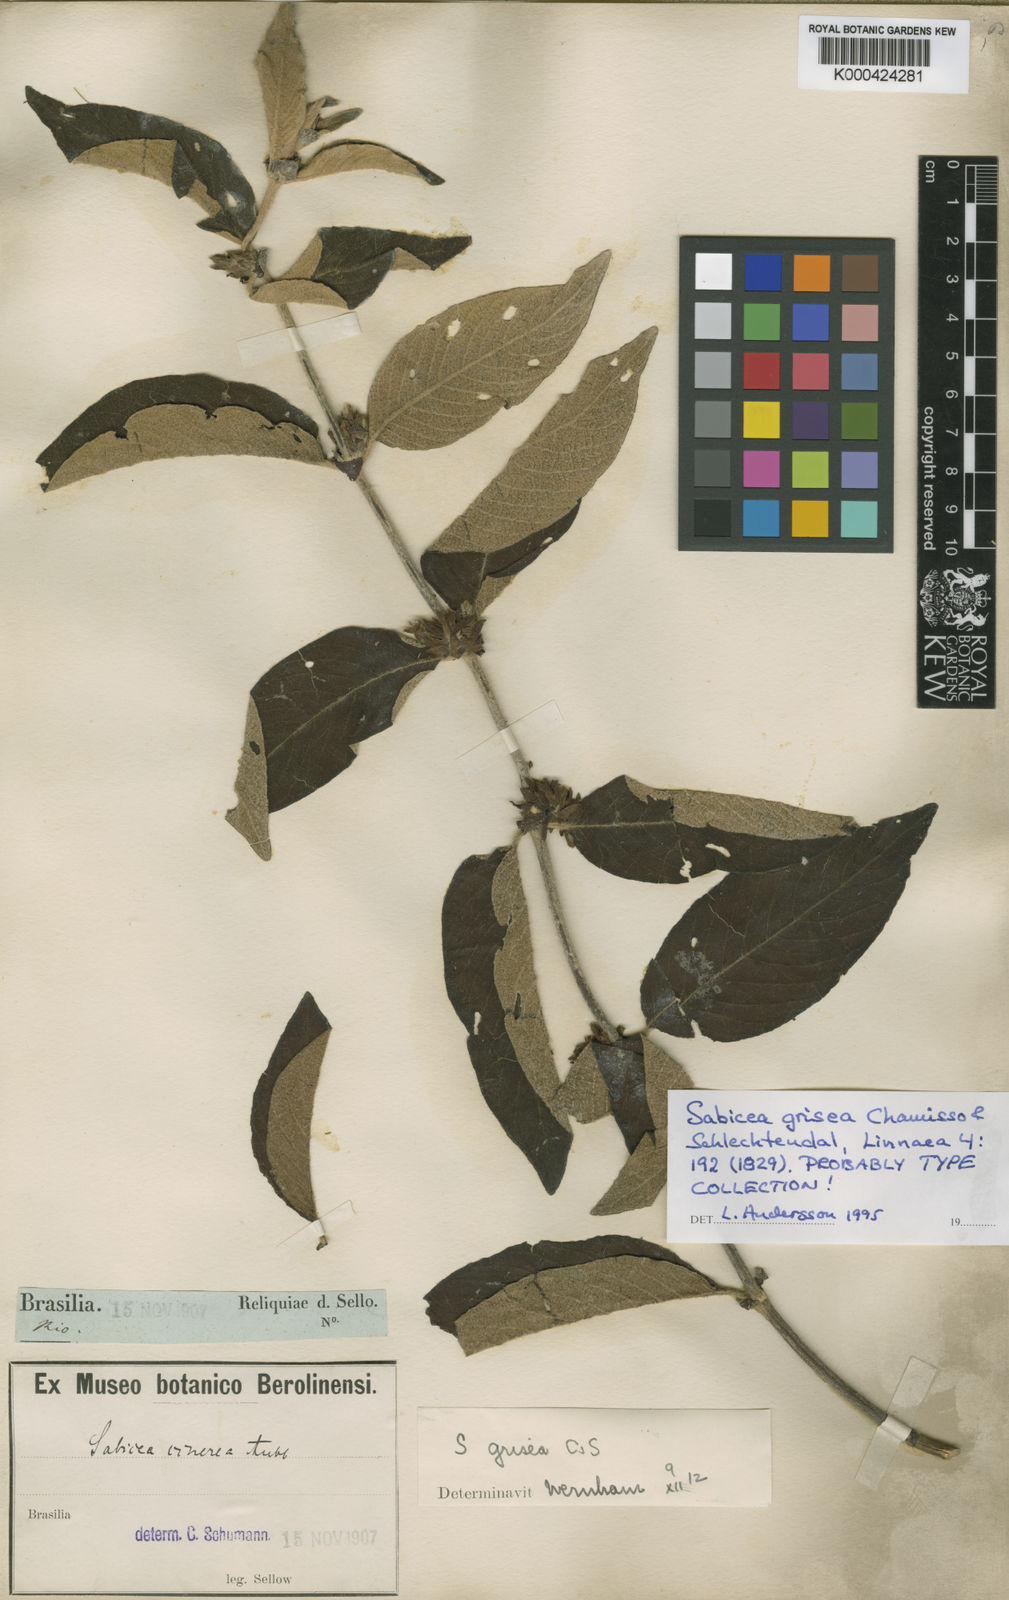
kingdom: Plantae
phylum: Tracheophyta
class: Magnoliopsida
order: Gentianales
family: Rubiaceae
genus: Sabicea
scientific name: Sabicea grisea
